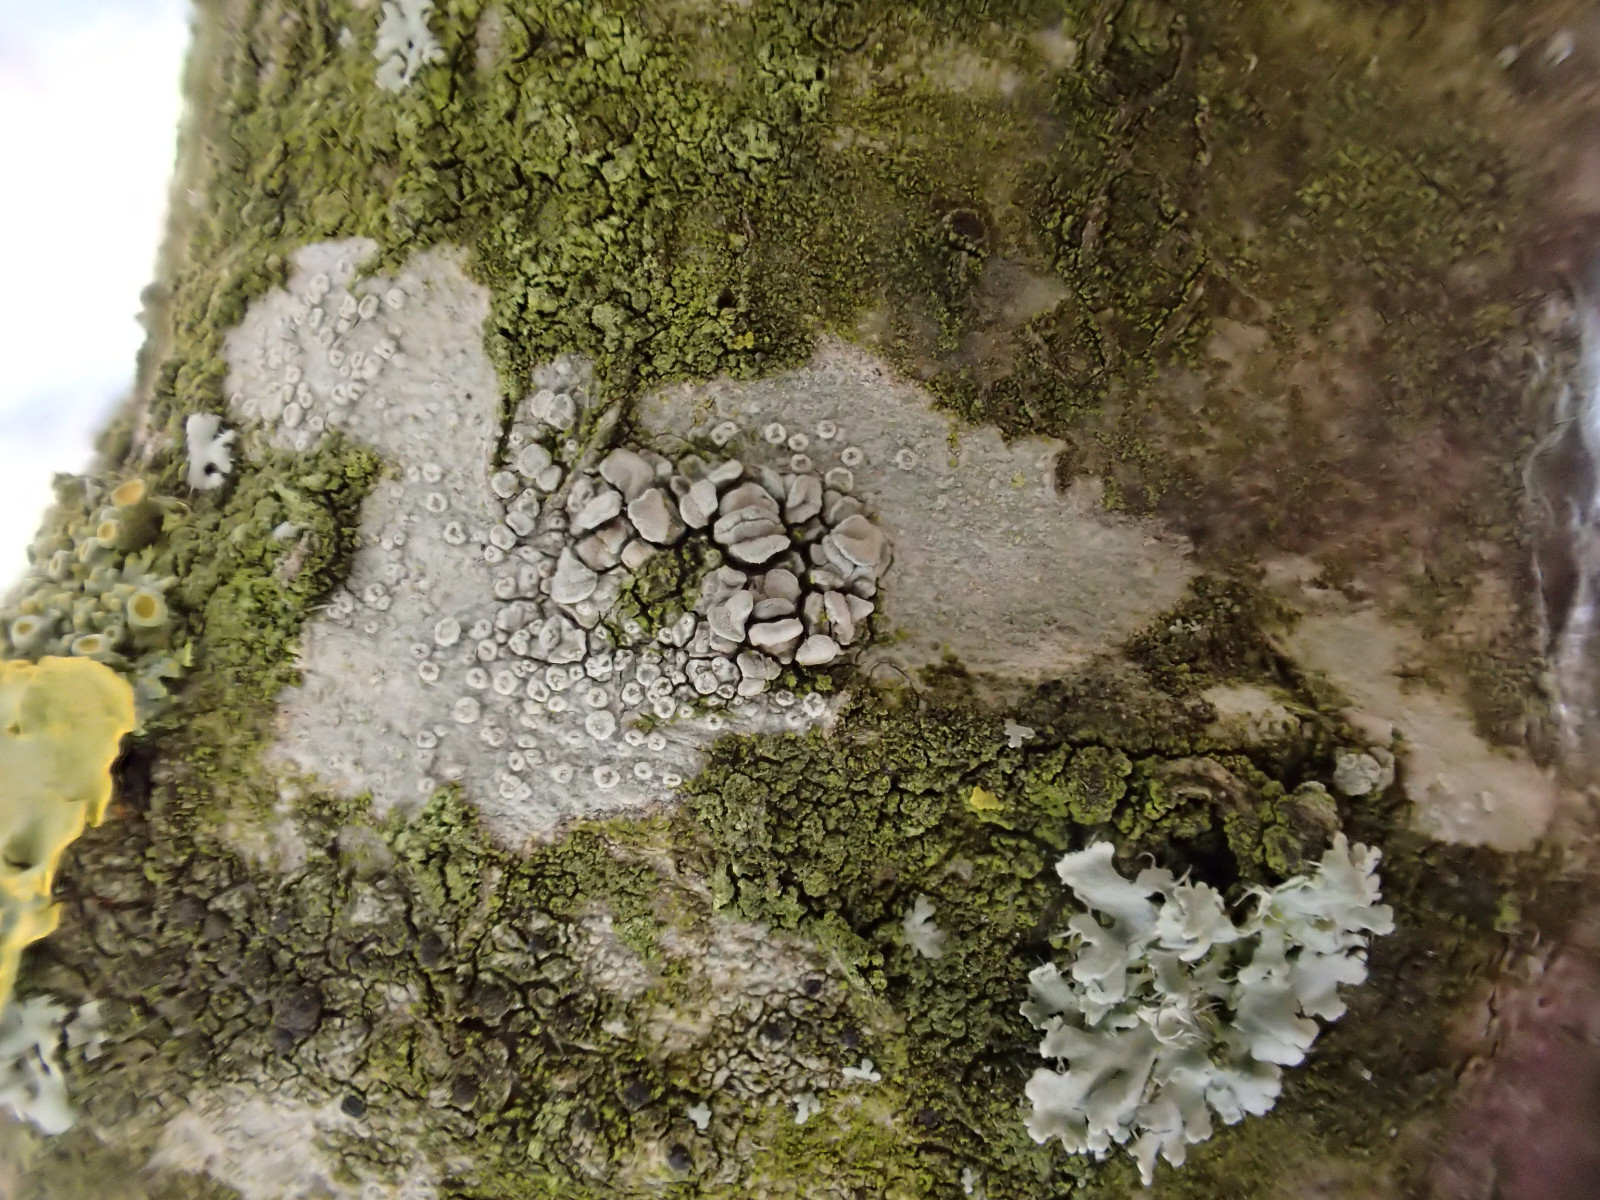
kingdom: Fungi
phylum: Ascomycota
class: Lecanoromycetes
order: Lecanorales
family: Lecanoraceae
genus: Glaucomaria
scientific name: Glaucomaria carpinea
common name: hviddugget kantskivelav
